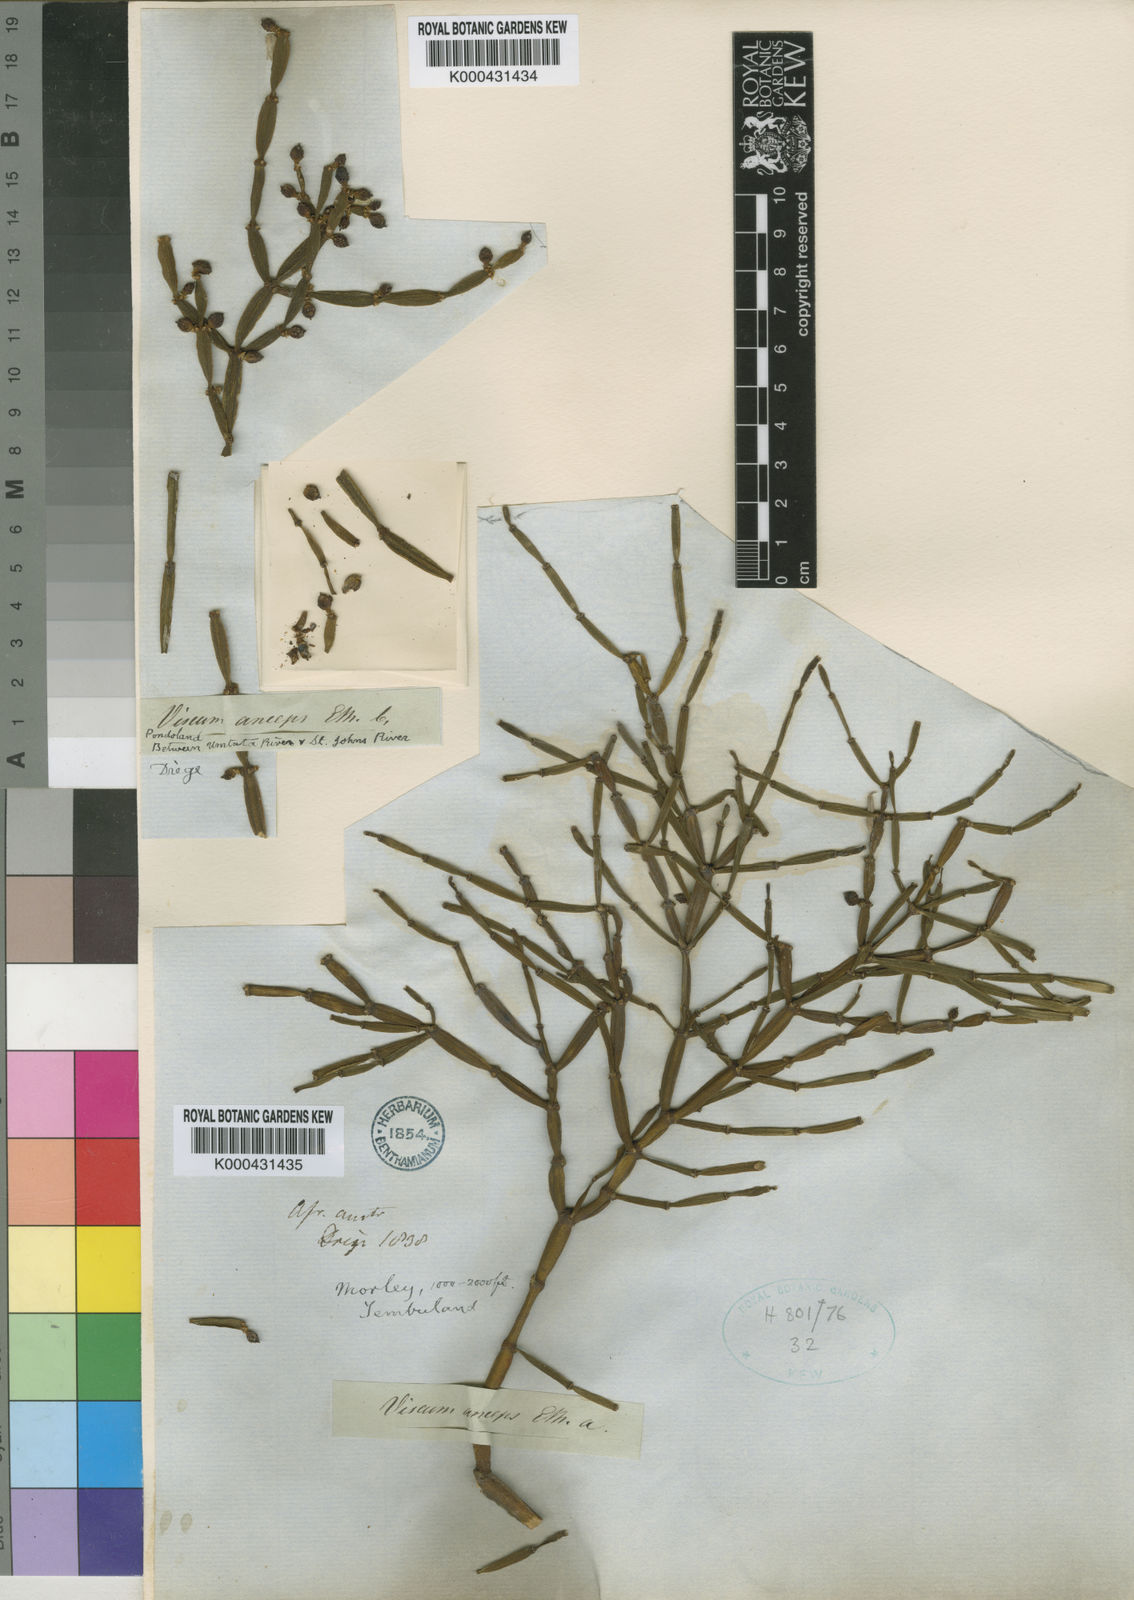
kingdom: Plantae
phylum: Tracheophyta
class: Magnoliopsida
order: Santalales
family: Viscaceae
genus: Viscum
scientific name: Viscum
